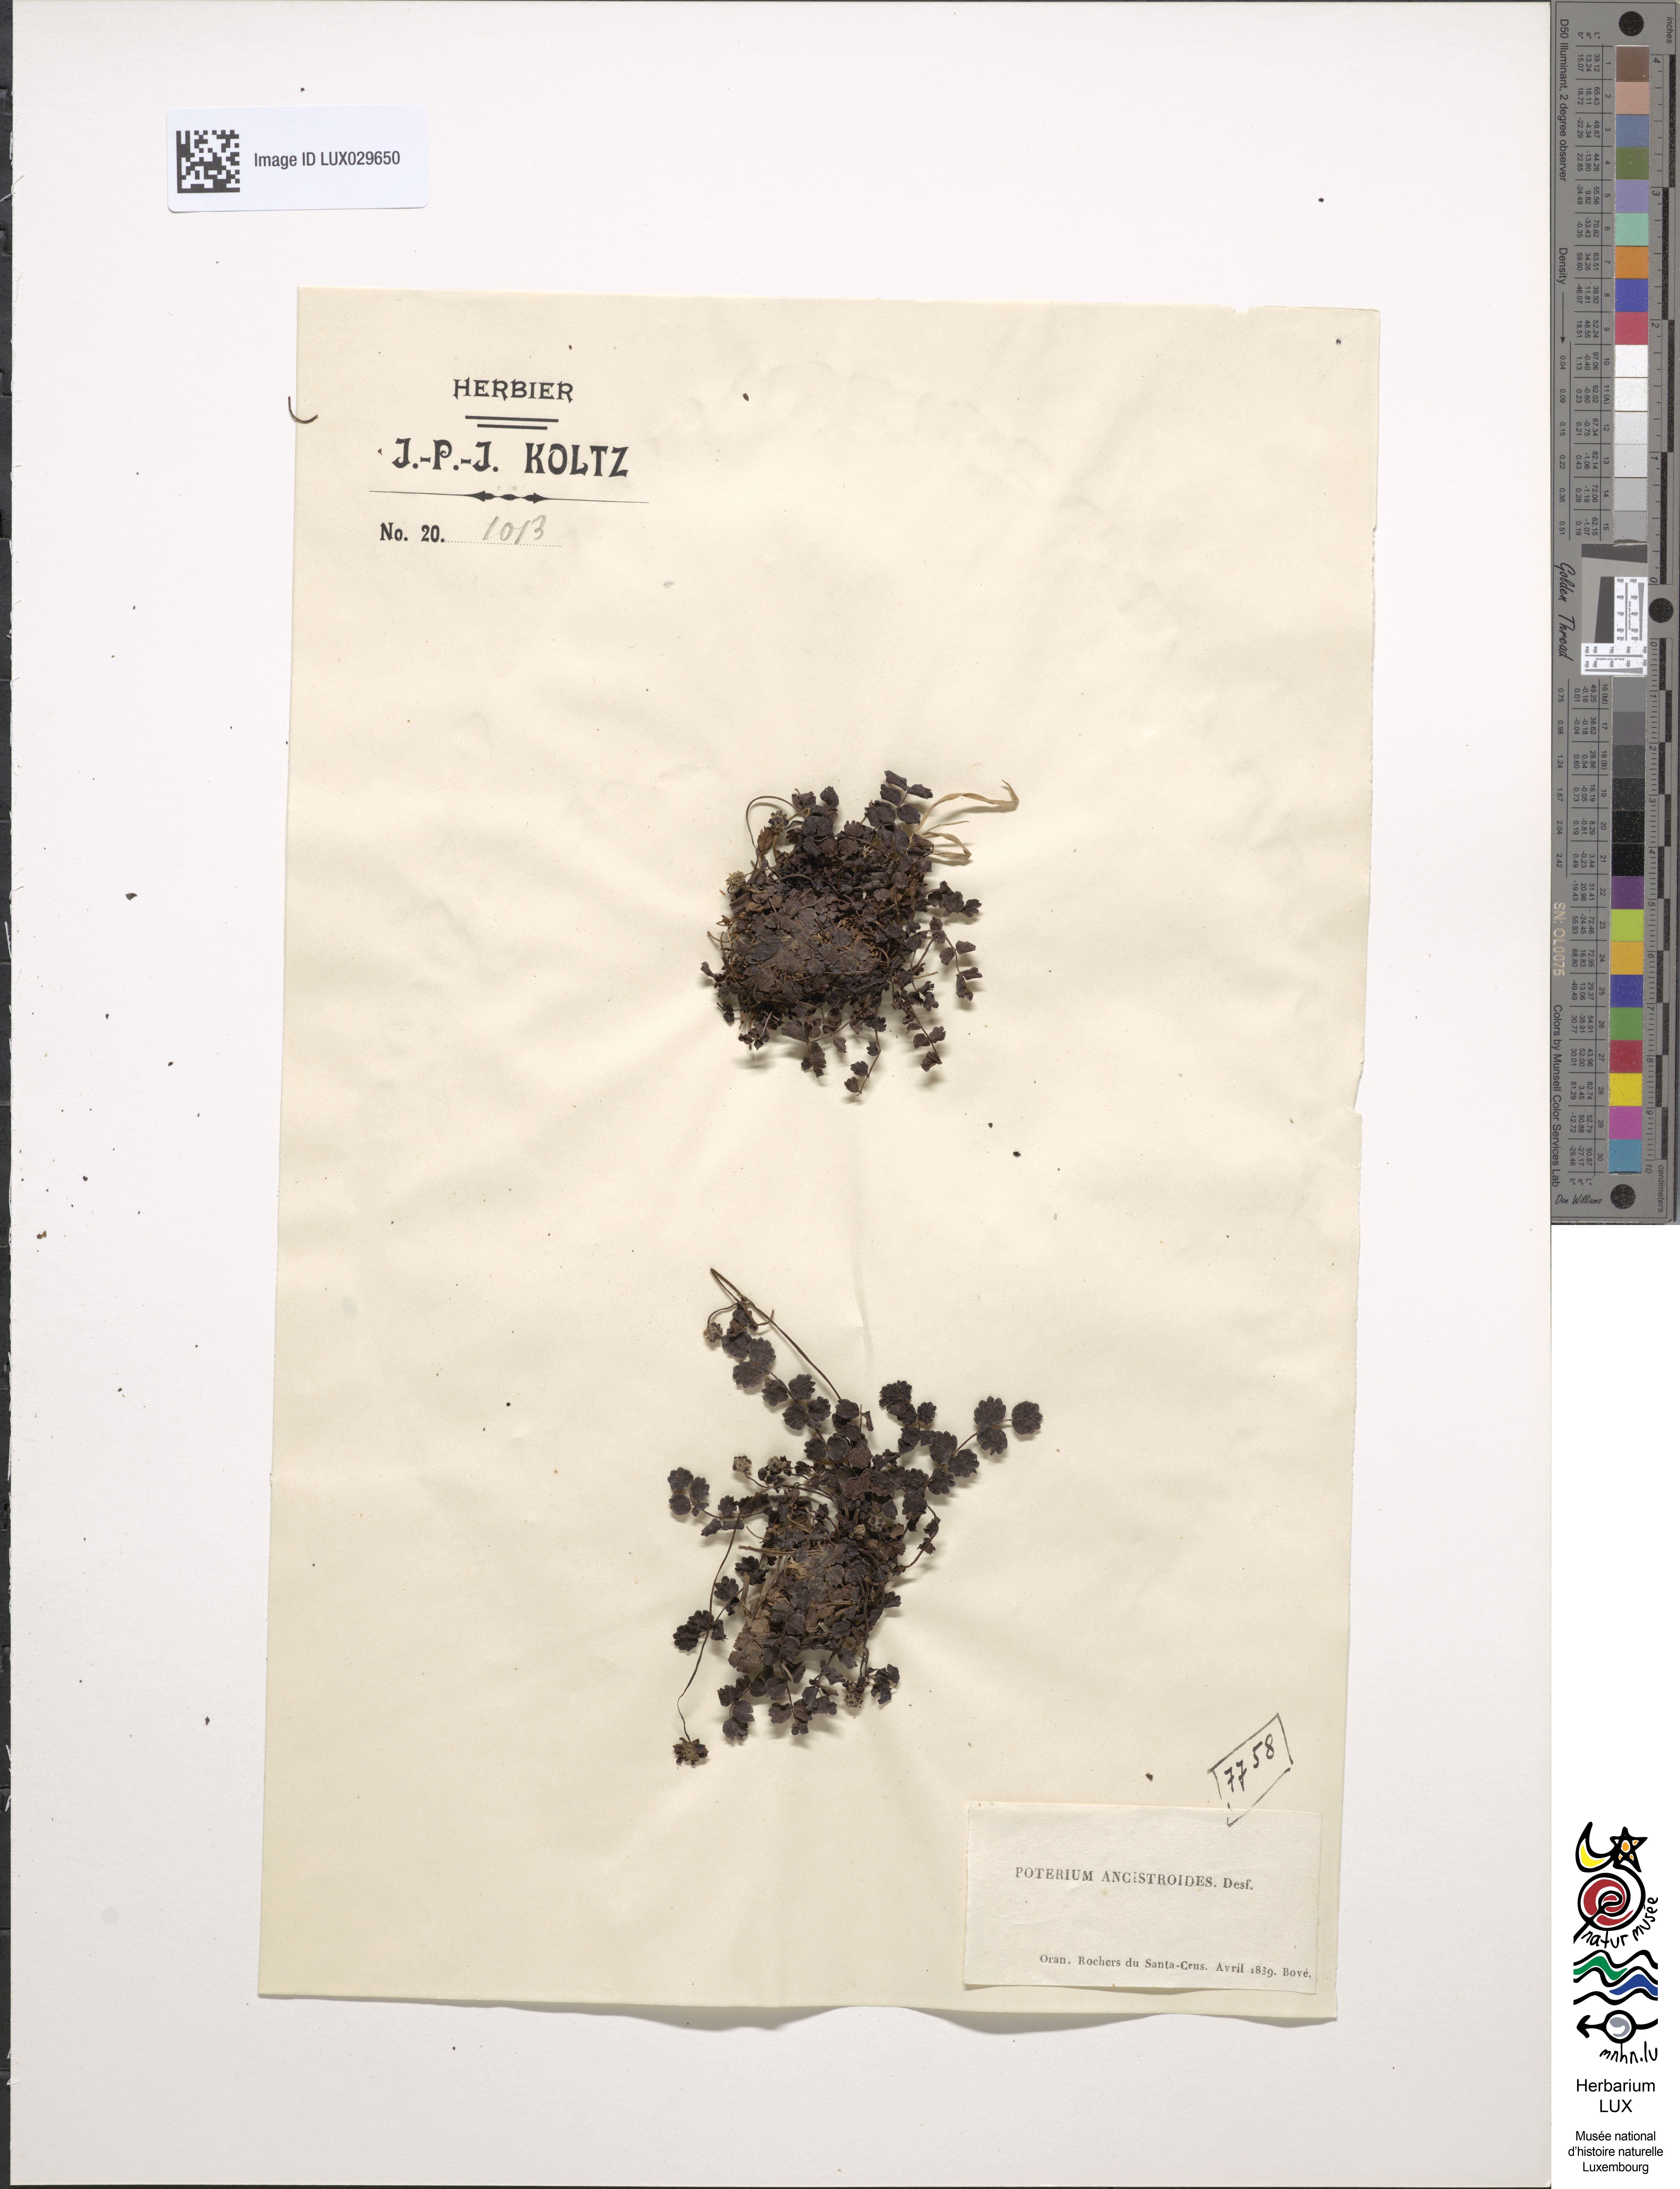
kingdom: Plantae
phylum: Tracheophyta
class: Magnoliopsida
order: Rosales
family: Rosaceae
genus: Poterium
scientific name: Poterium ancistroides
